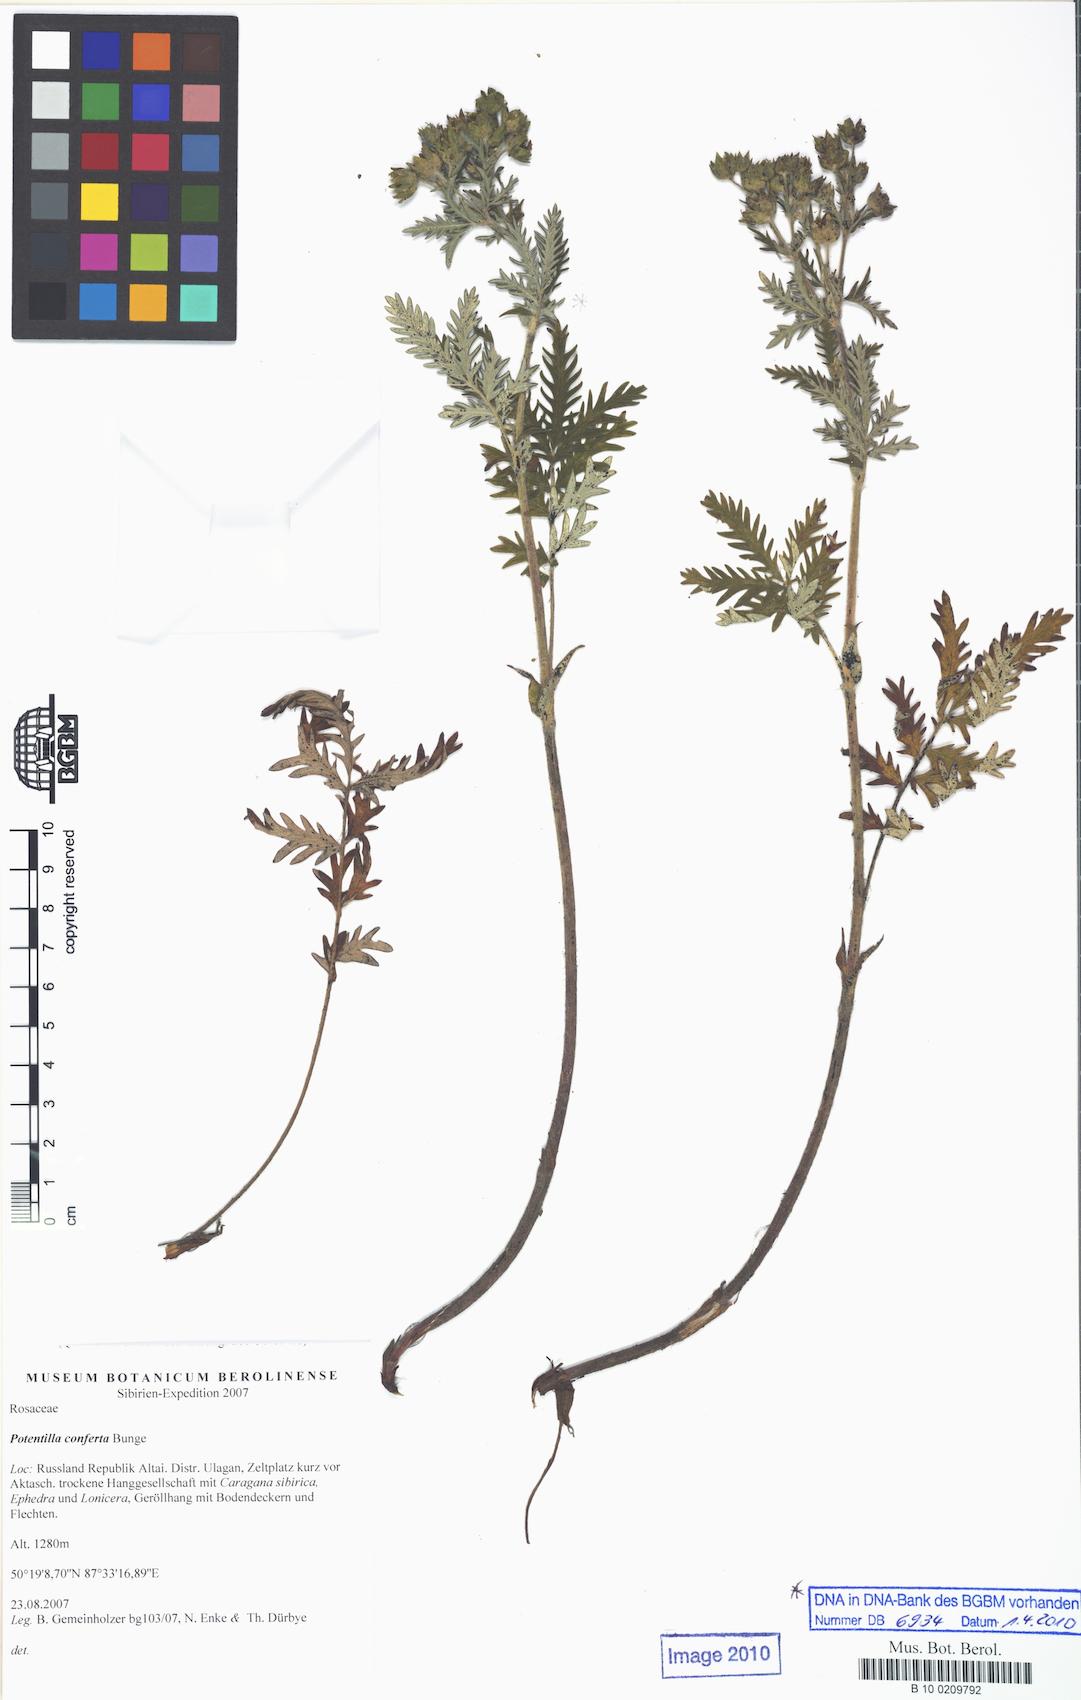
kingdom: Plantae
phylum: Tracheophyta
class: Magnoliopsida
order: Rosales
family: Rosaceae
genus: Potentilla
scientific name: Potentilla conferta
